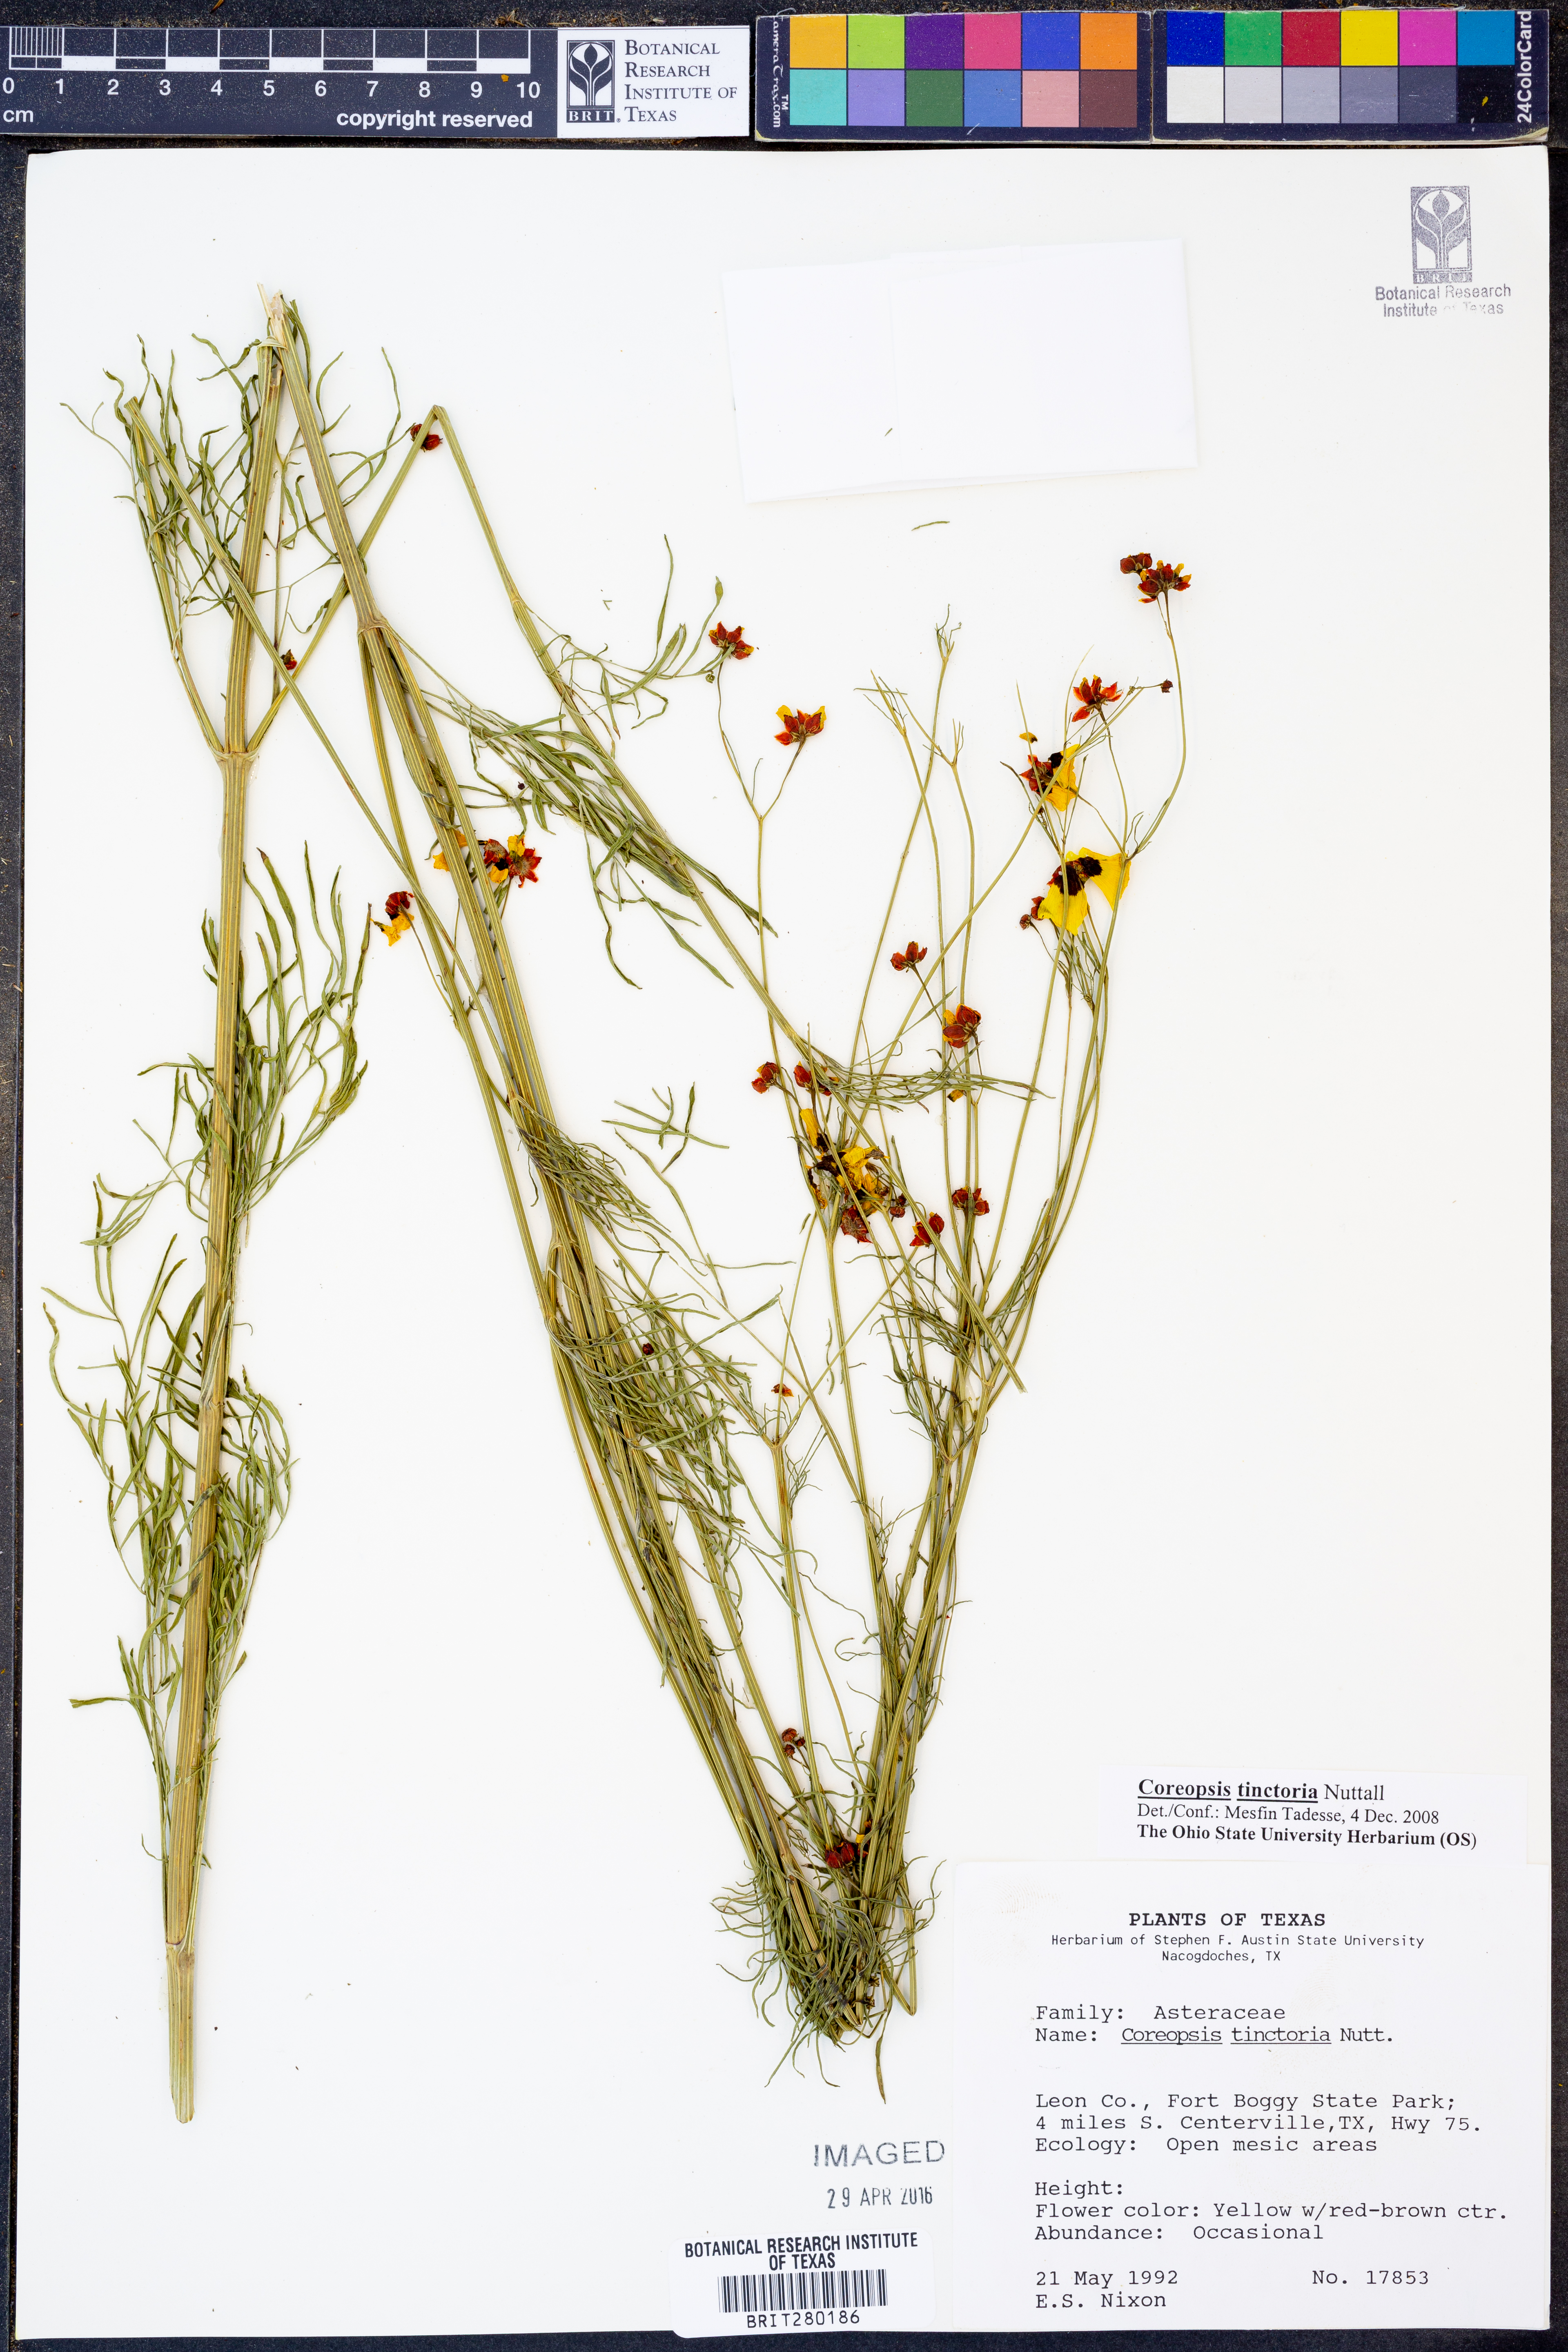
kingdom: Plantae
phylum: Tracheophyta
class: Magnoliopsida
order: Asterales
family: Asteraceae
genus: Coreopsis
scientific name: Coreopsis tinctoria
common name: Garden tickseed
